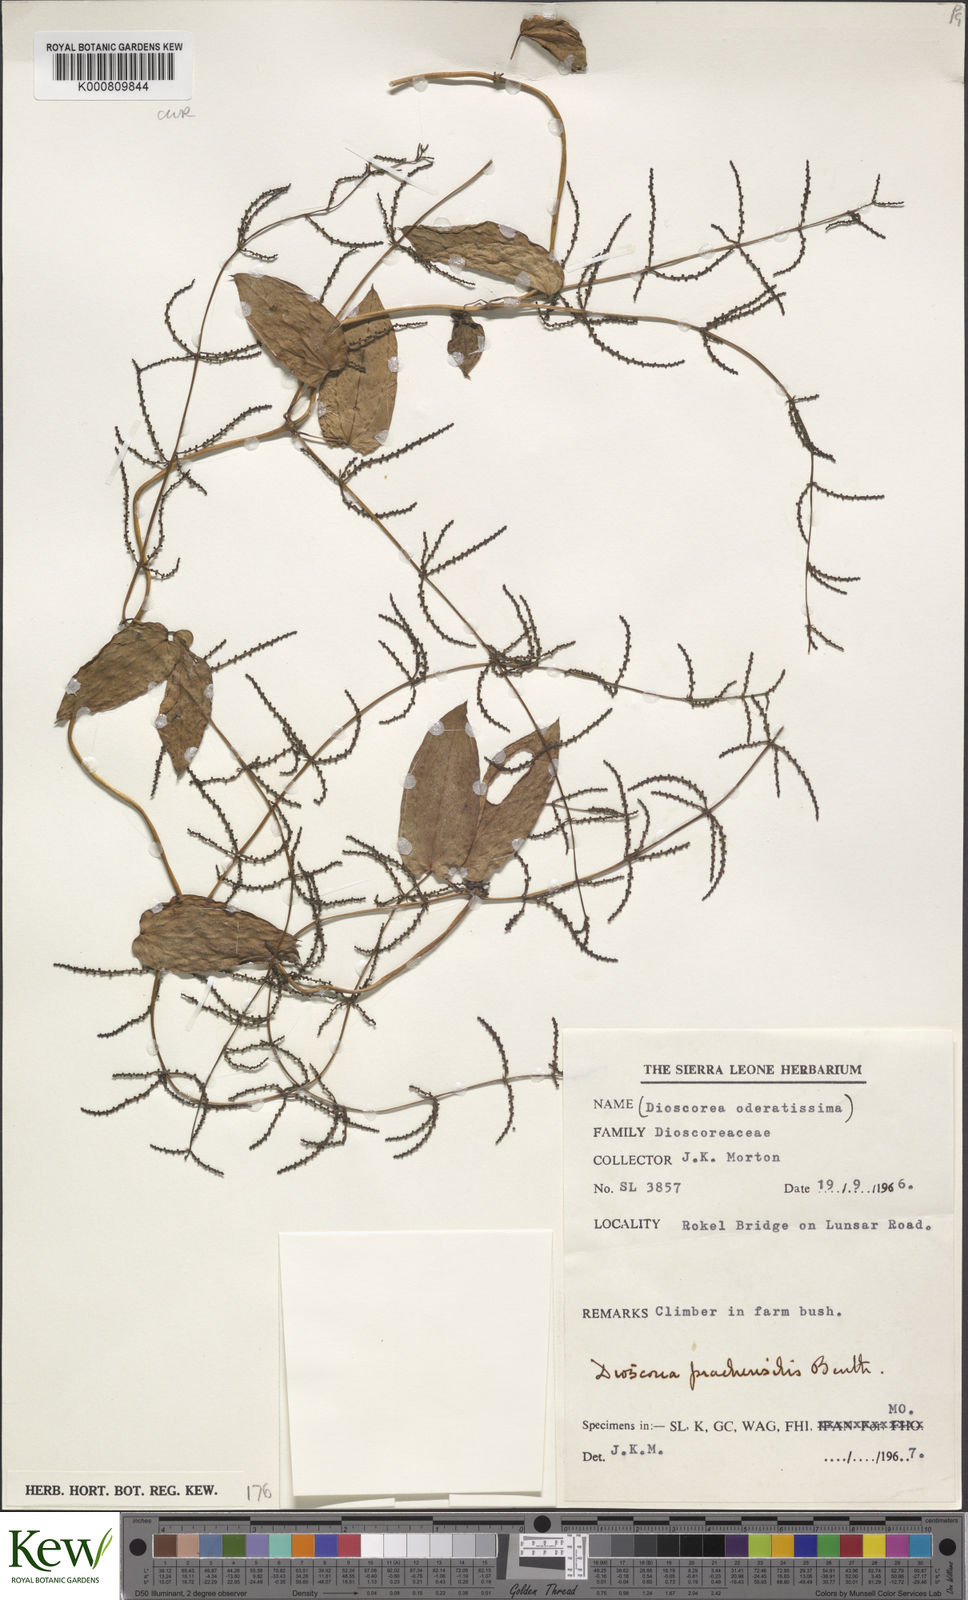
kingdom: Plantae
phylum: Tracheophyta
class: Liliopsida
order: Dioscoreales
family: Dioscoreaceae
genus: Dioscorea
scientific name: Dioscorea praehensilis
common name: Bush yam
